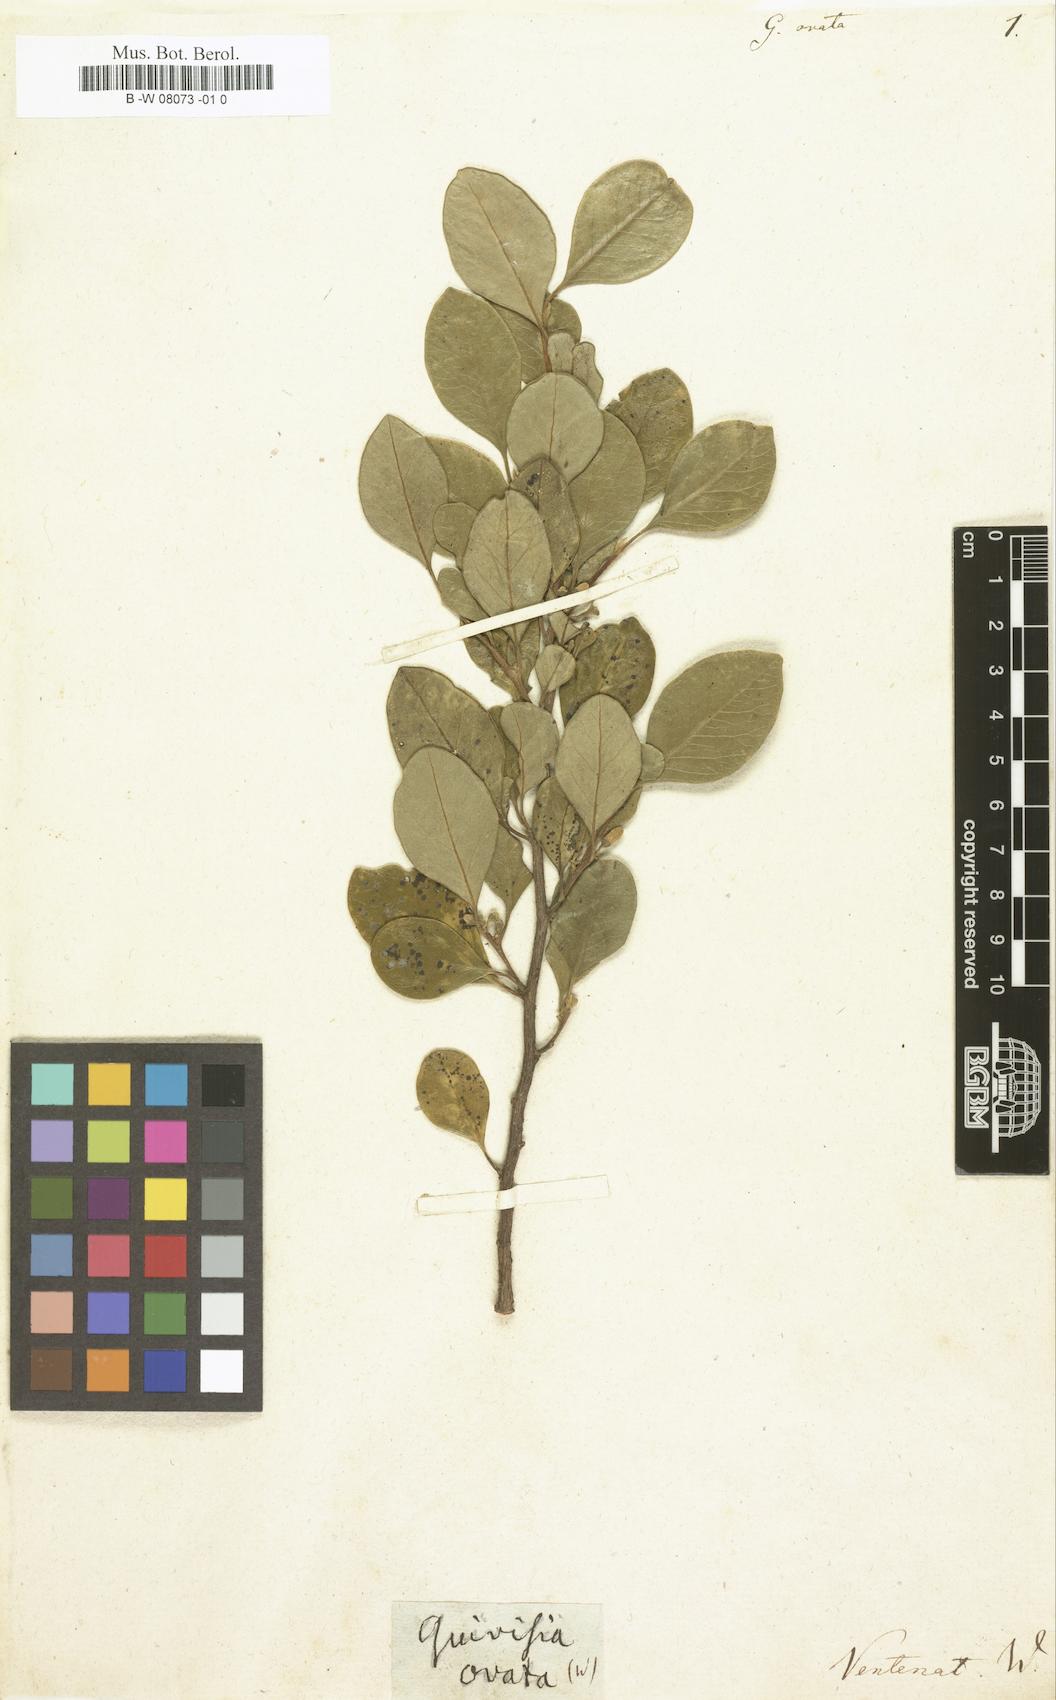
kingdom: Plantae
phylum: Tracheophyta
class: Magnoliopsida
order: Sapindales
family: Meliaceae
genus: Turraea
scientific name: Turraea ovata
